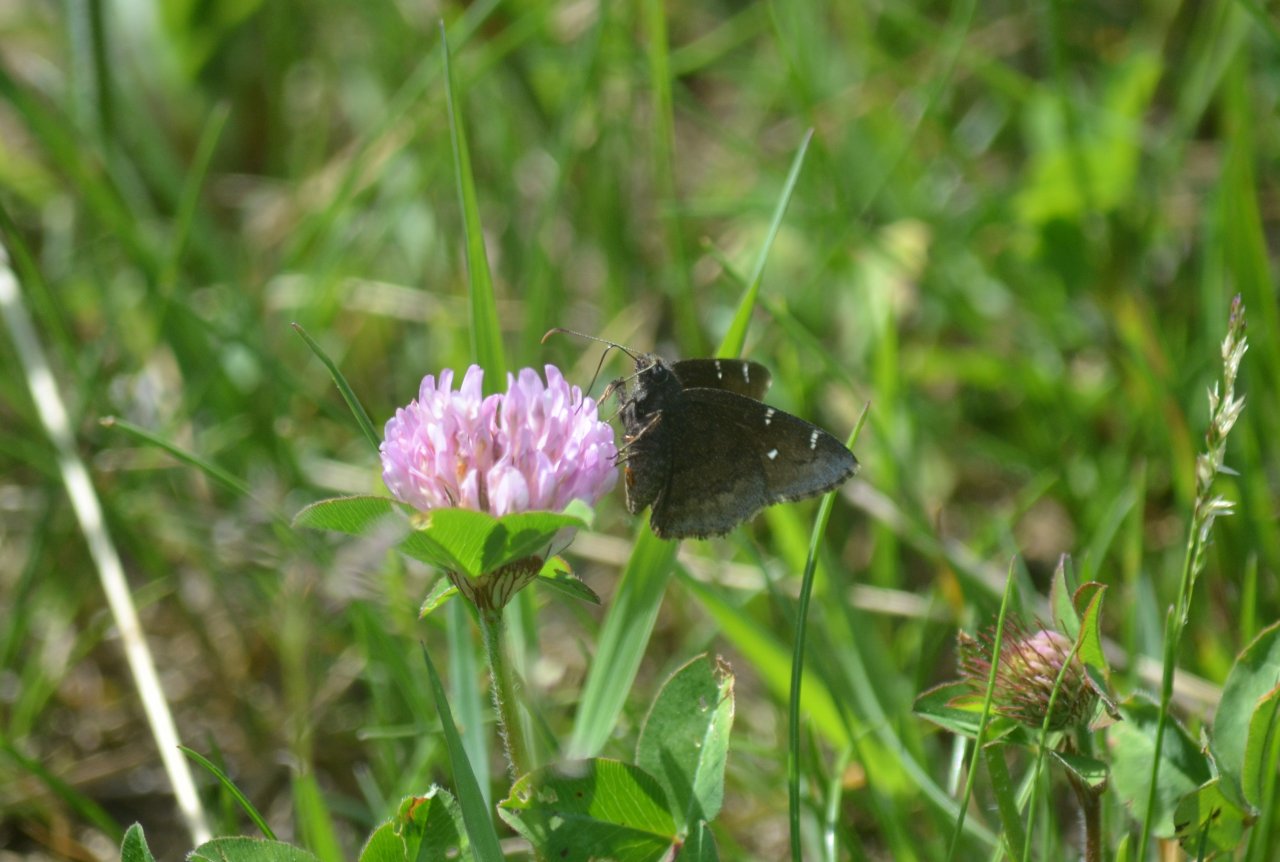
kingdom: Animalia
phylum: Arthropoda
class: Insecta
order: Lepidoptera
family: Hesperiidae
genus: Autochton
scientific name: Autochton
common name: Northern Cloudywing
